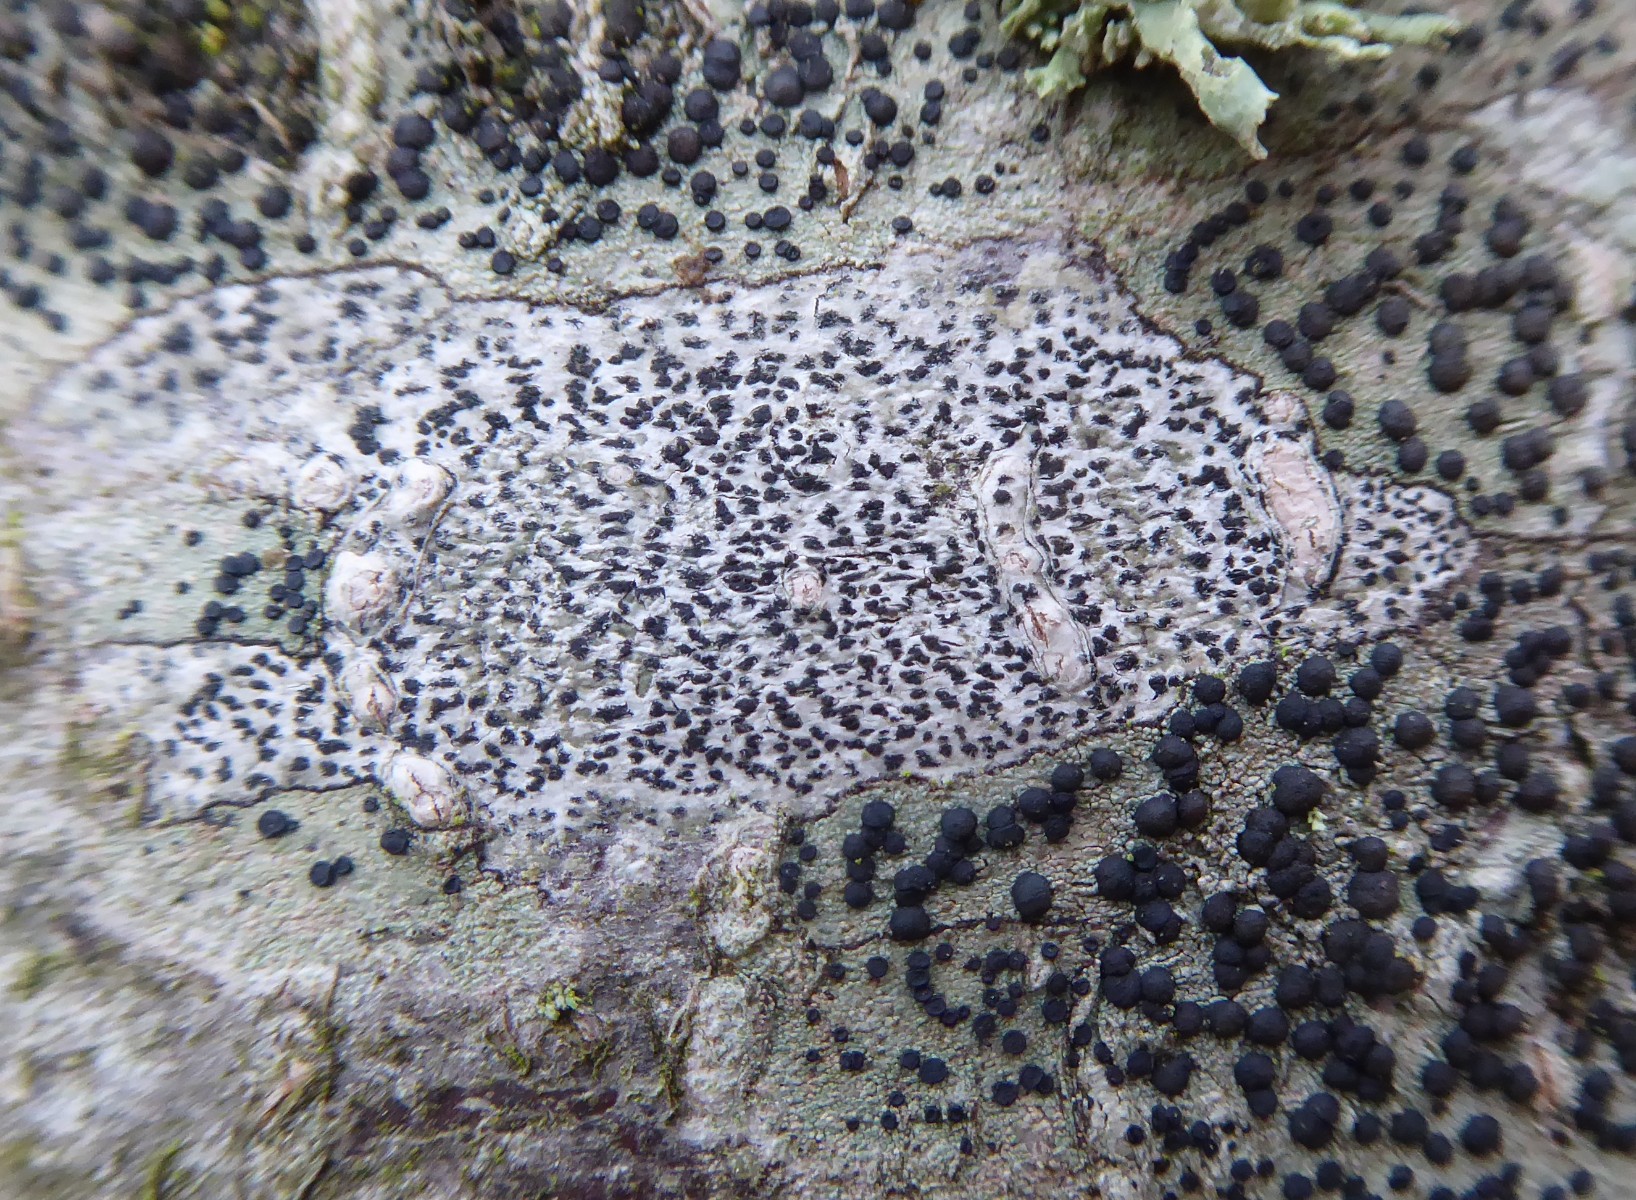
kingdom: Fungi
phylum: Ascomycota
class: Arthoniomycetes
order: Arthoniales
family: Arthoniaceae
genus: Arthonia
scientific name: Arthonia radiata
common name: stjerne-pletlav
